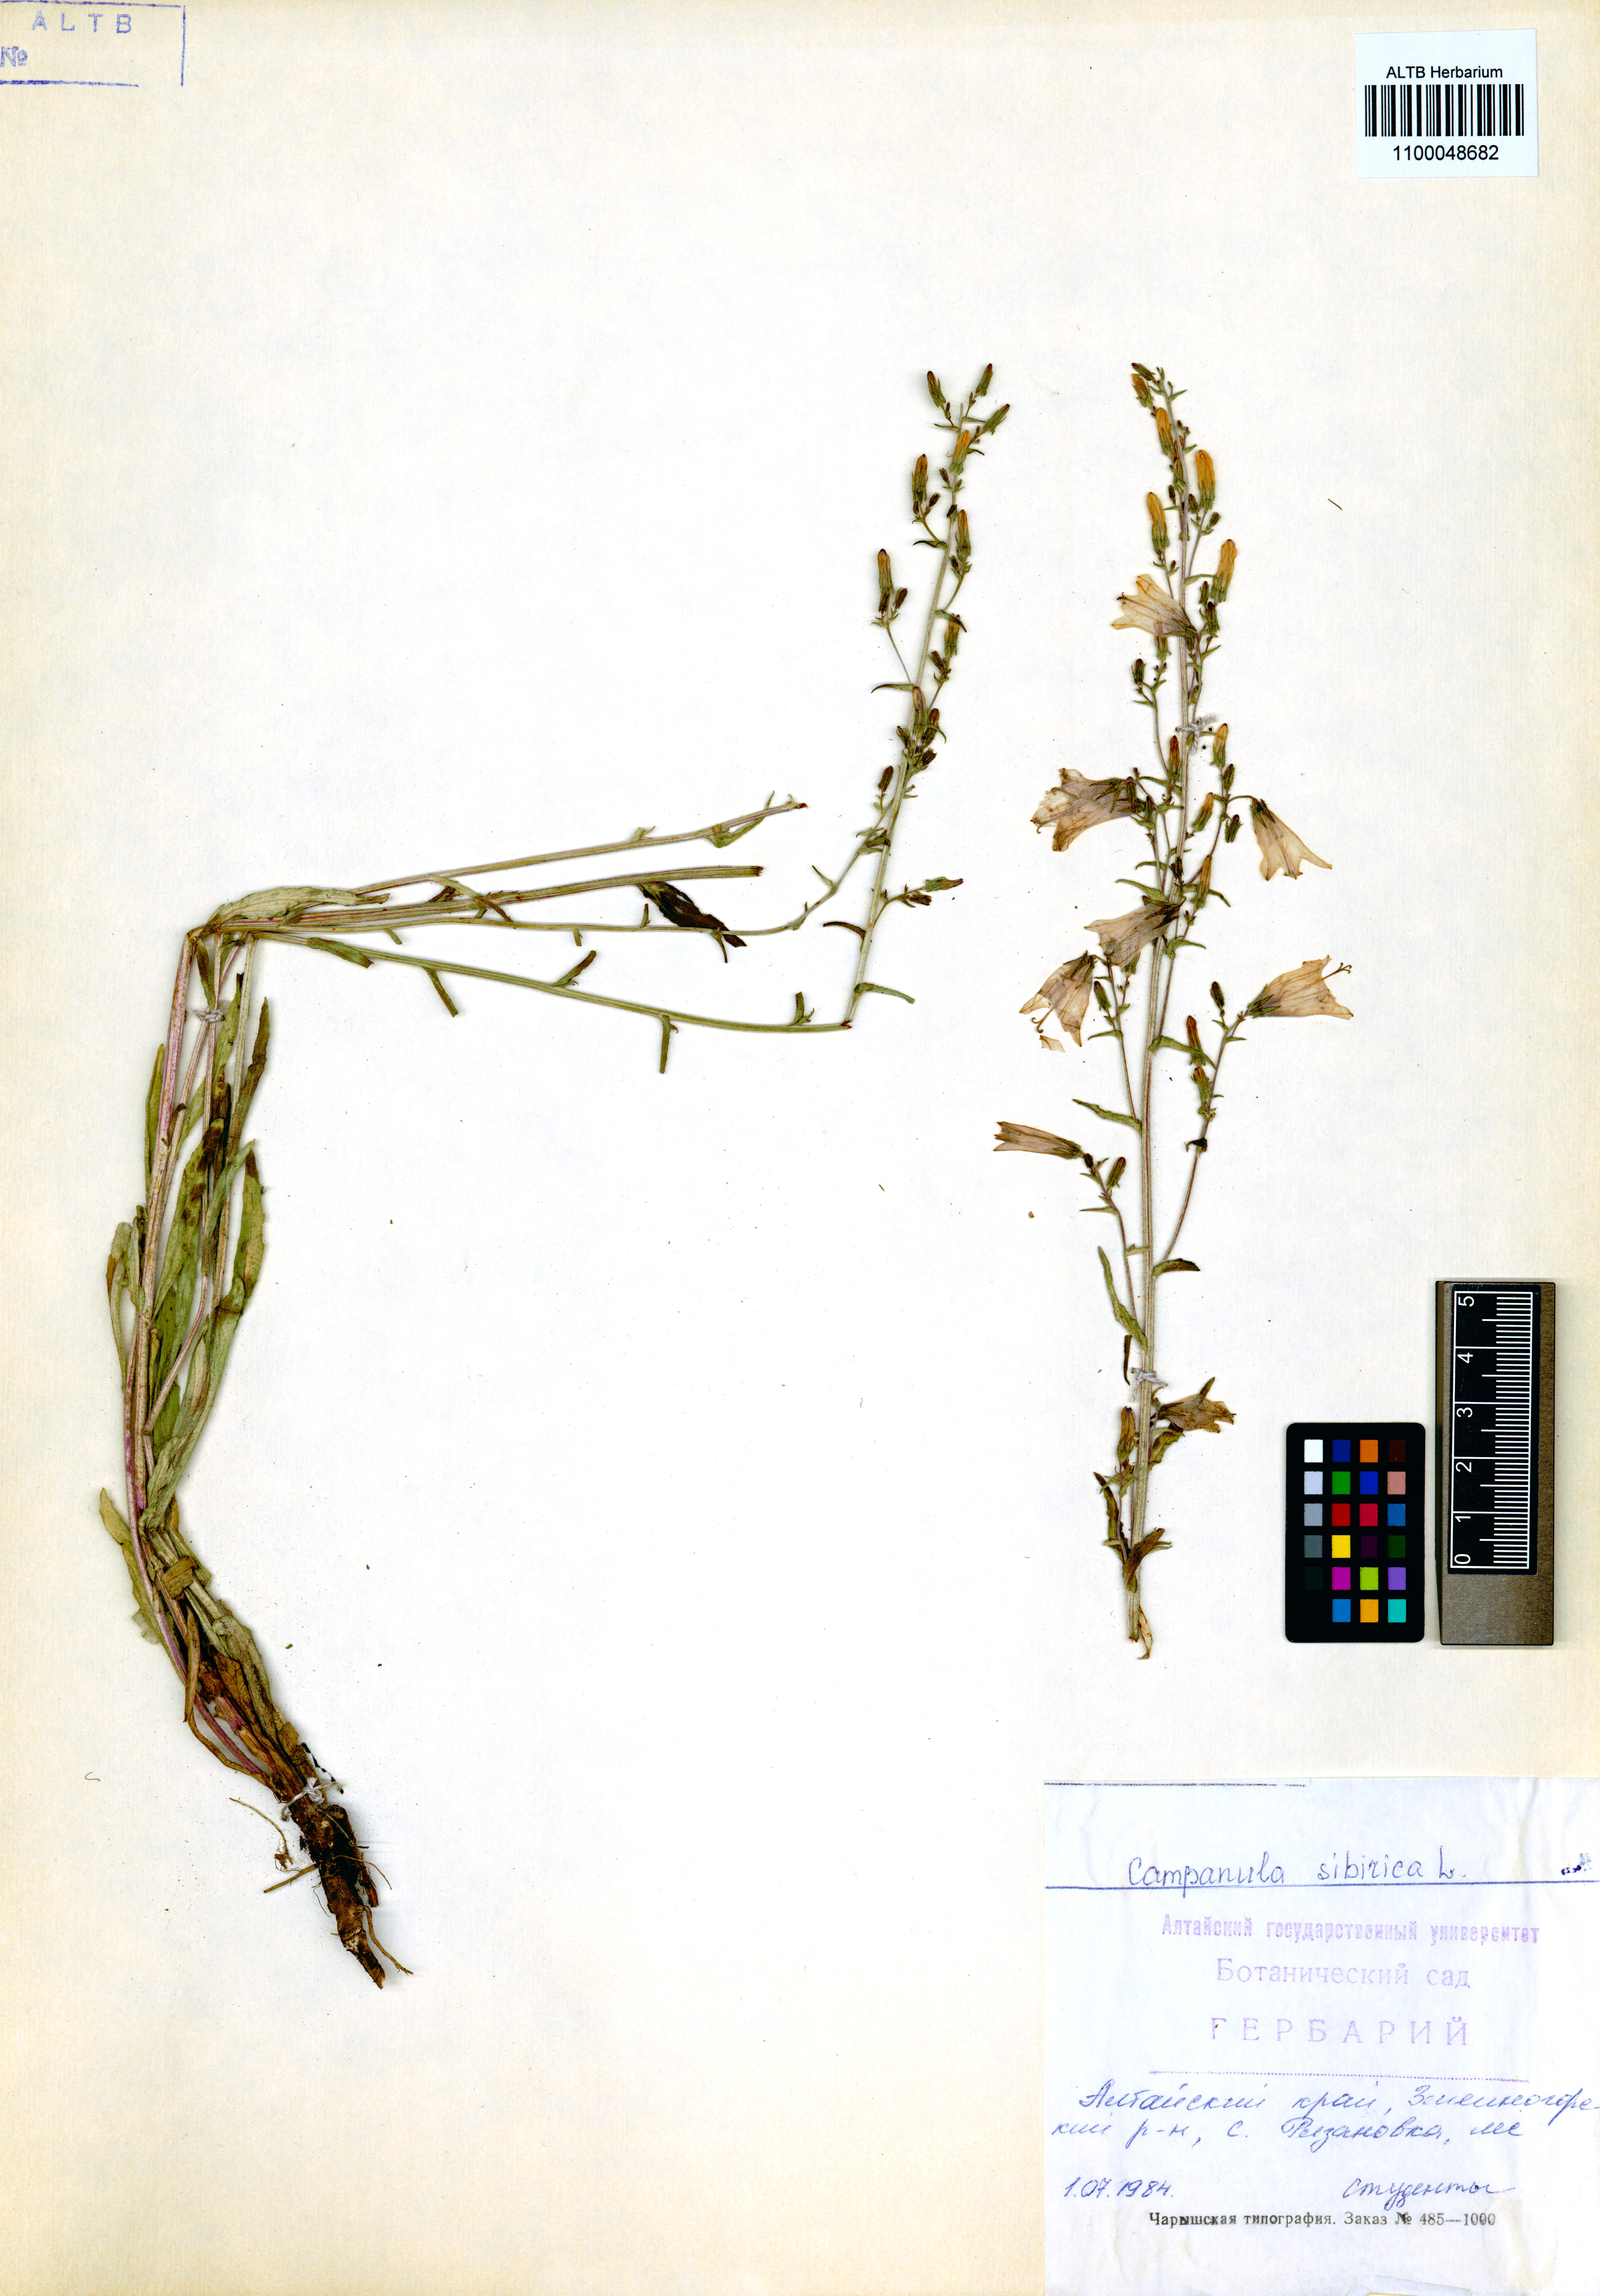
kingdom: Plantae
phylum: Tracheophyta
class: Magnoliopsida
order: Asterales
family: Campanulaceae
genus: Campanula
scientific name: Campanula sibirica
